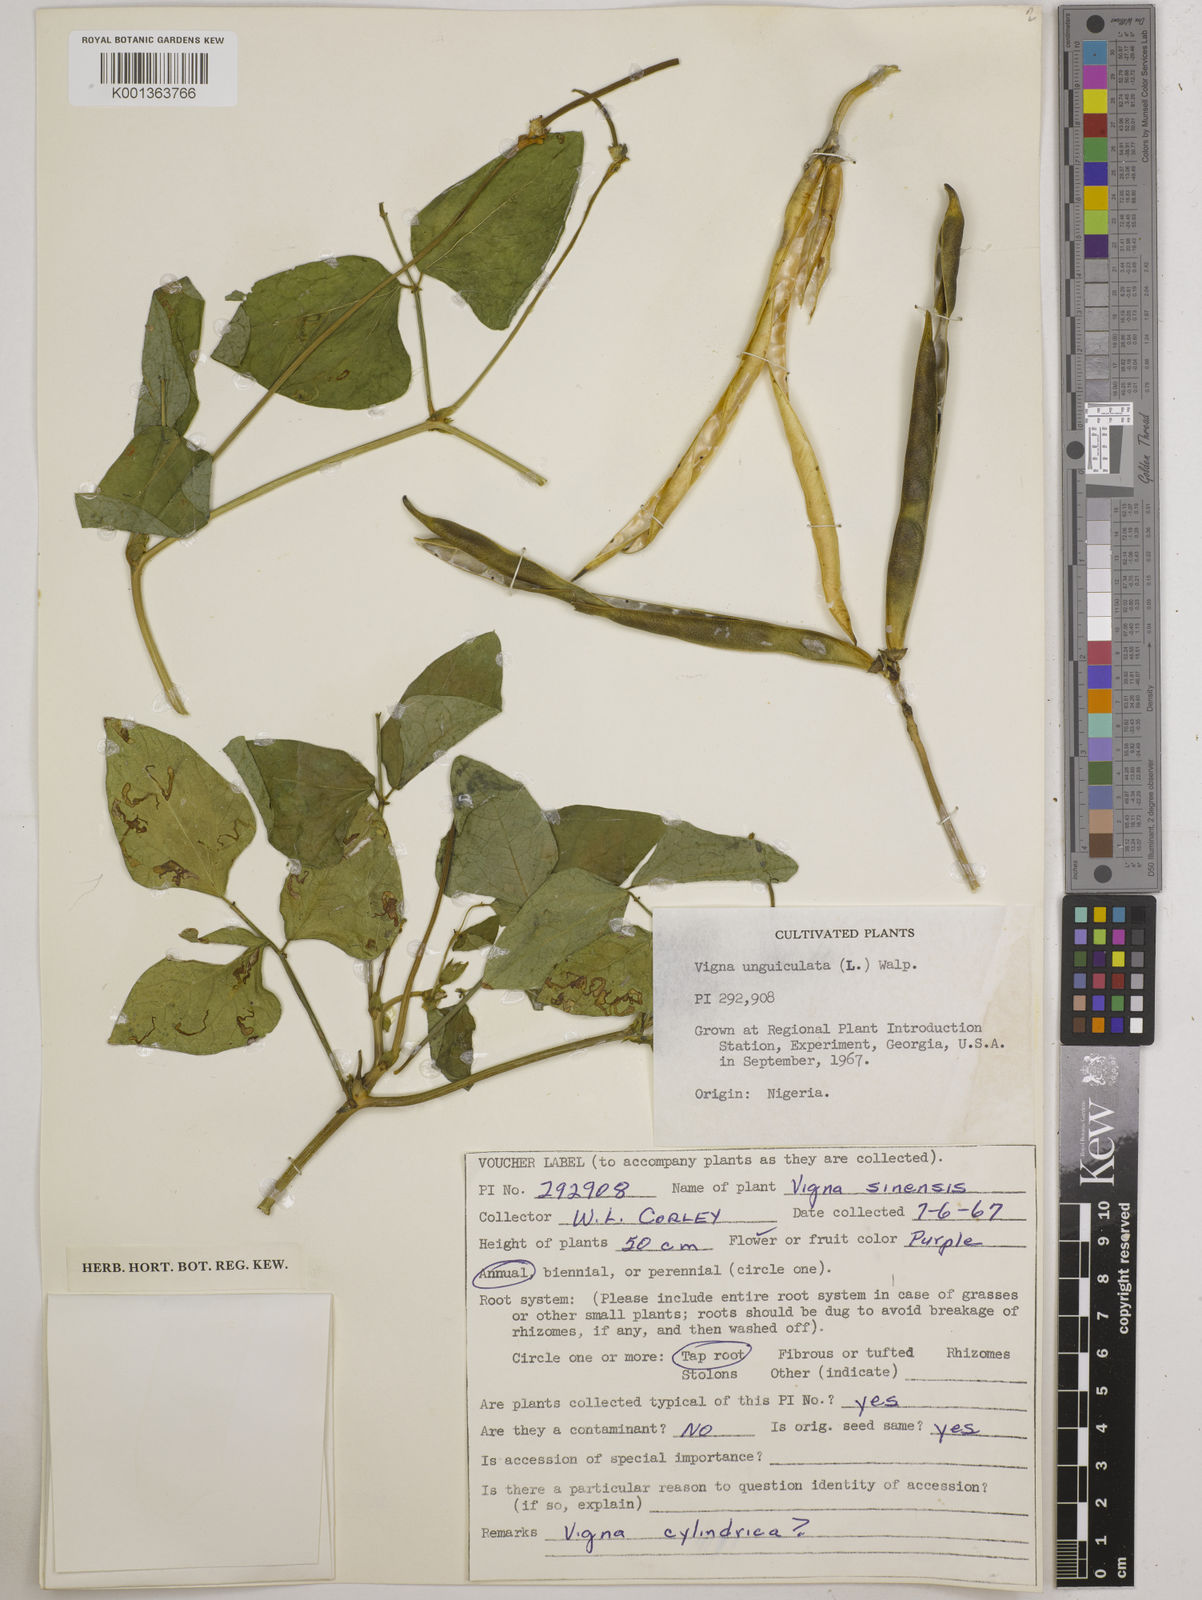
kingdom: Plantae
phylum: Tracheophyta
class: Magnoliopsida
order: Fabales
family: Fabaceae
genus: Vigna
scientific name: Vigna unguiculata
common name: Cowpea
